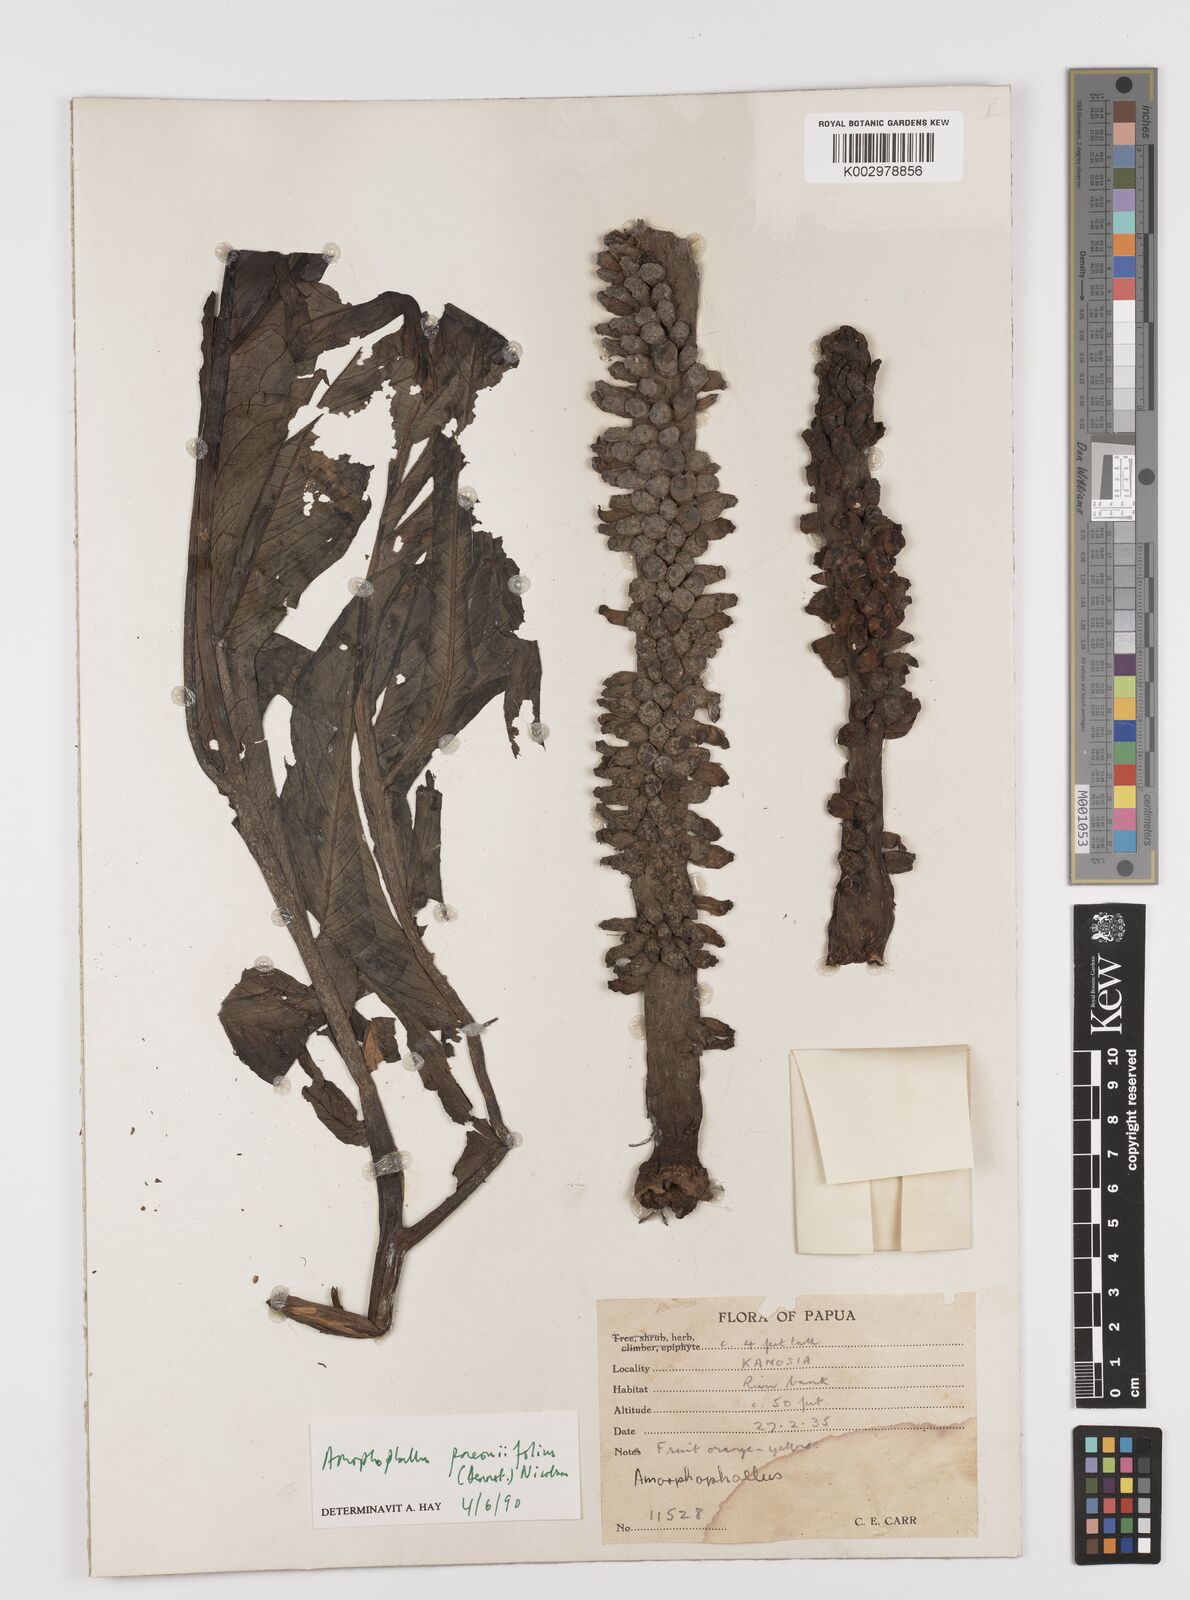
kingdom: Plantae
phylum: Tracheophyta
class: Liliopsida
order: Alismatales
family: Araceae
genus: Amorphophallus
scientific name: Amorphophallus paeoniifolius
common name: Telinga-potato
